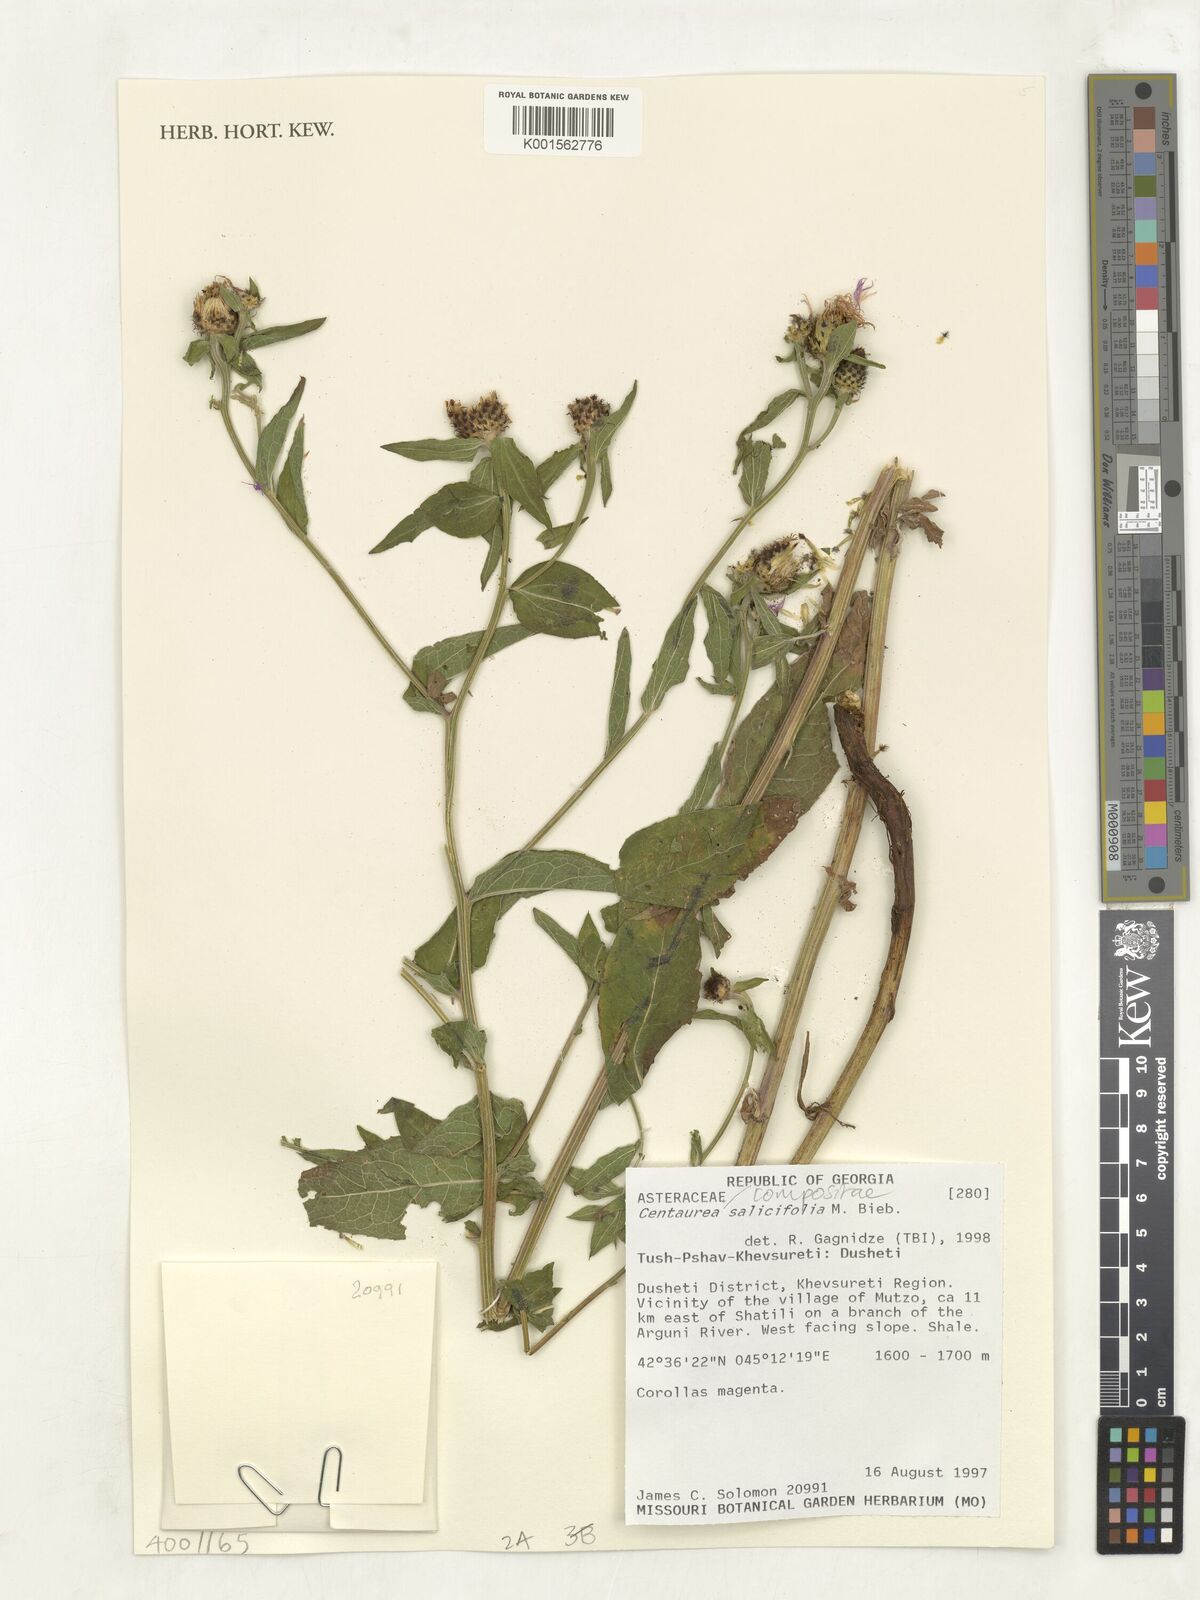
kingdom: Plantae
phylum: Tracheophyta
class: Magnoliopsida
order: Asterales
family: Asteraceae
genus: Centaurea
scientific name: Centaurea phrygia
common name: Wig knapweed
